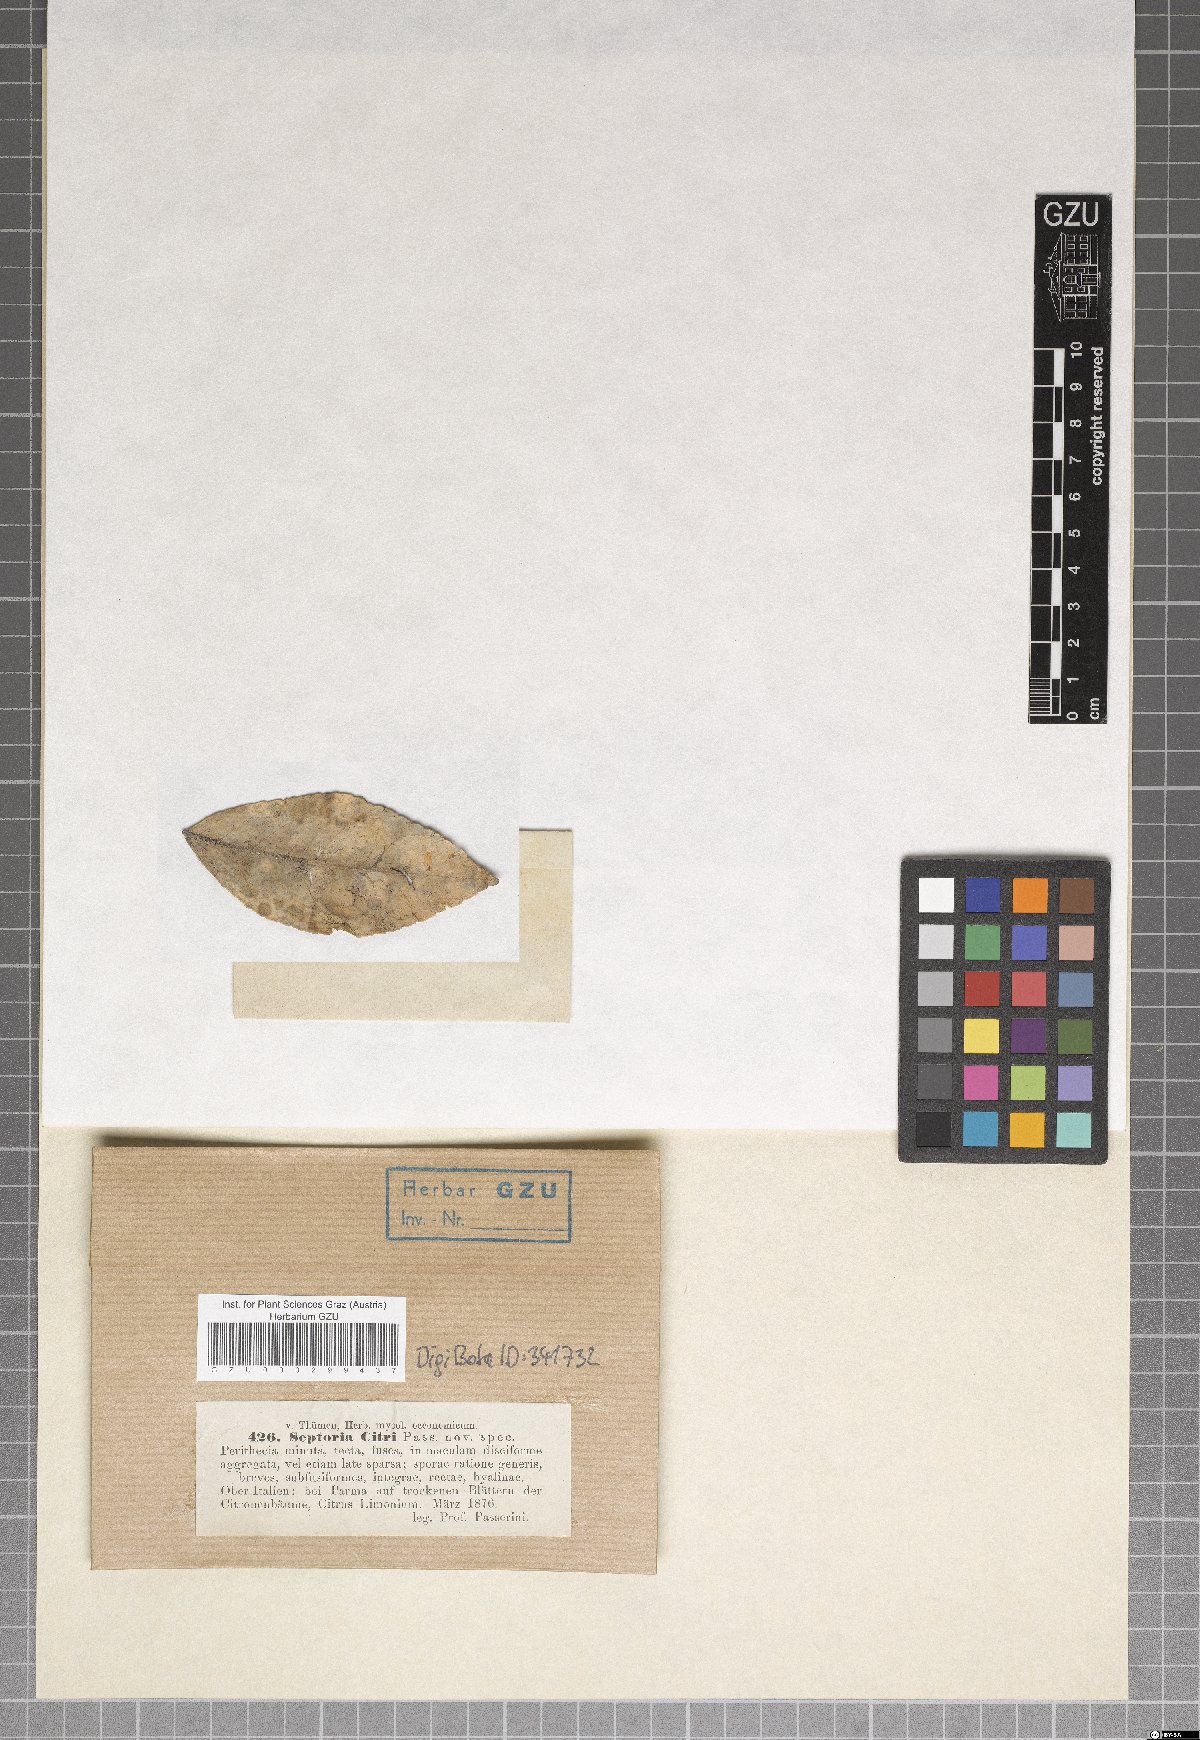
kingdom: Fungi
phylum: Ascomycota
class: Dothideomycetes
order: Mycosphaerellales
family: Mycosphaerellaceae
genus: Septoria
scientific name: Septoria citri
